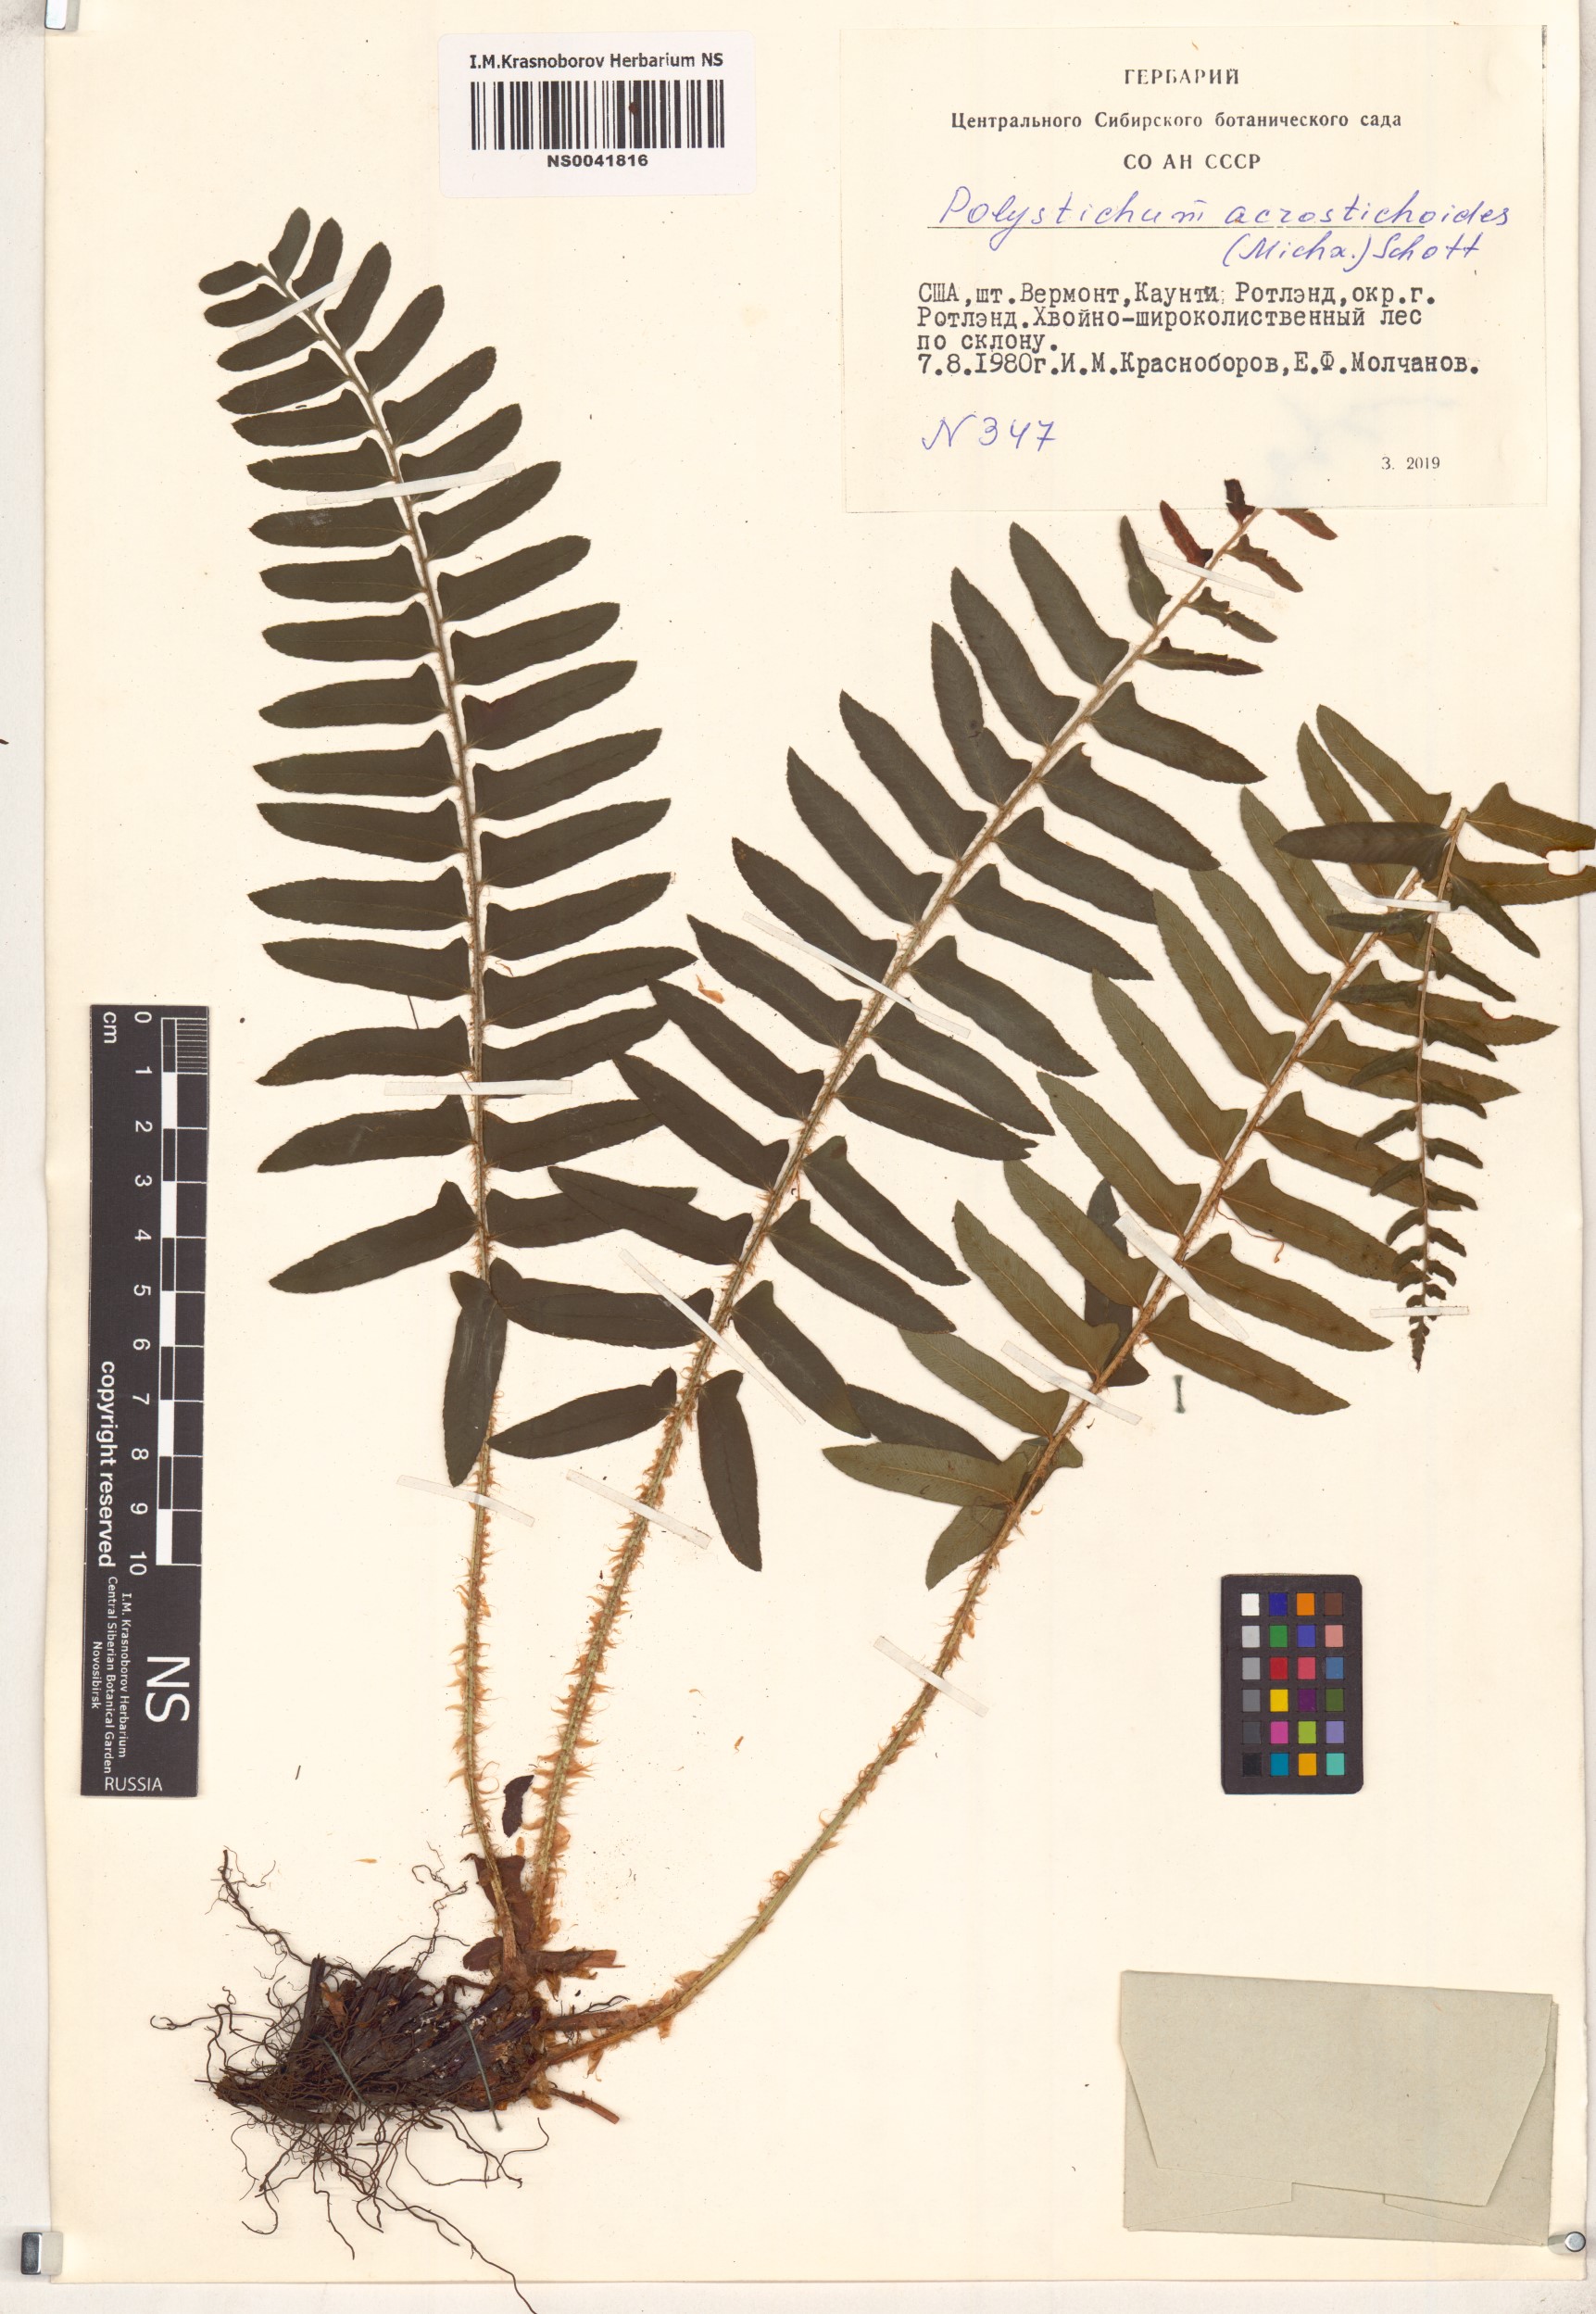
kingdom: Plantae
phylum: Tracheophyta
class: Polypodiopsida
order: Polypodiales
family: Dryopteridaceae
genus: Polystichum
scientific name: Polystichum acrostichoides
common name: Christmas fern
